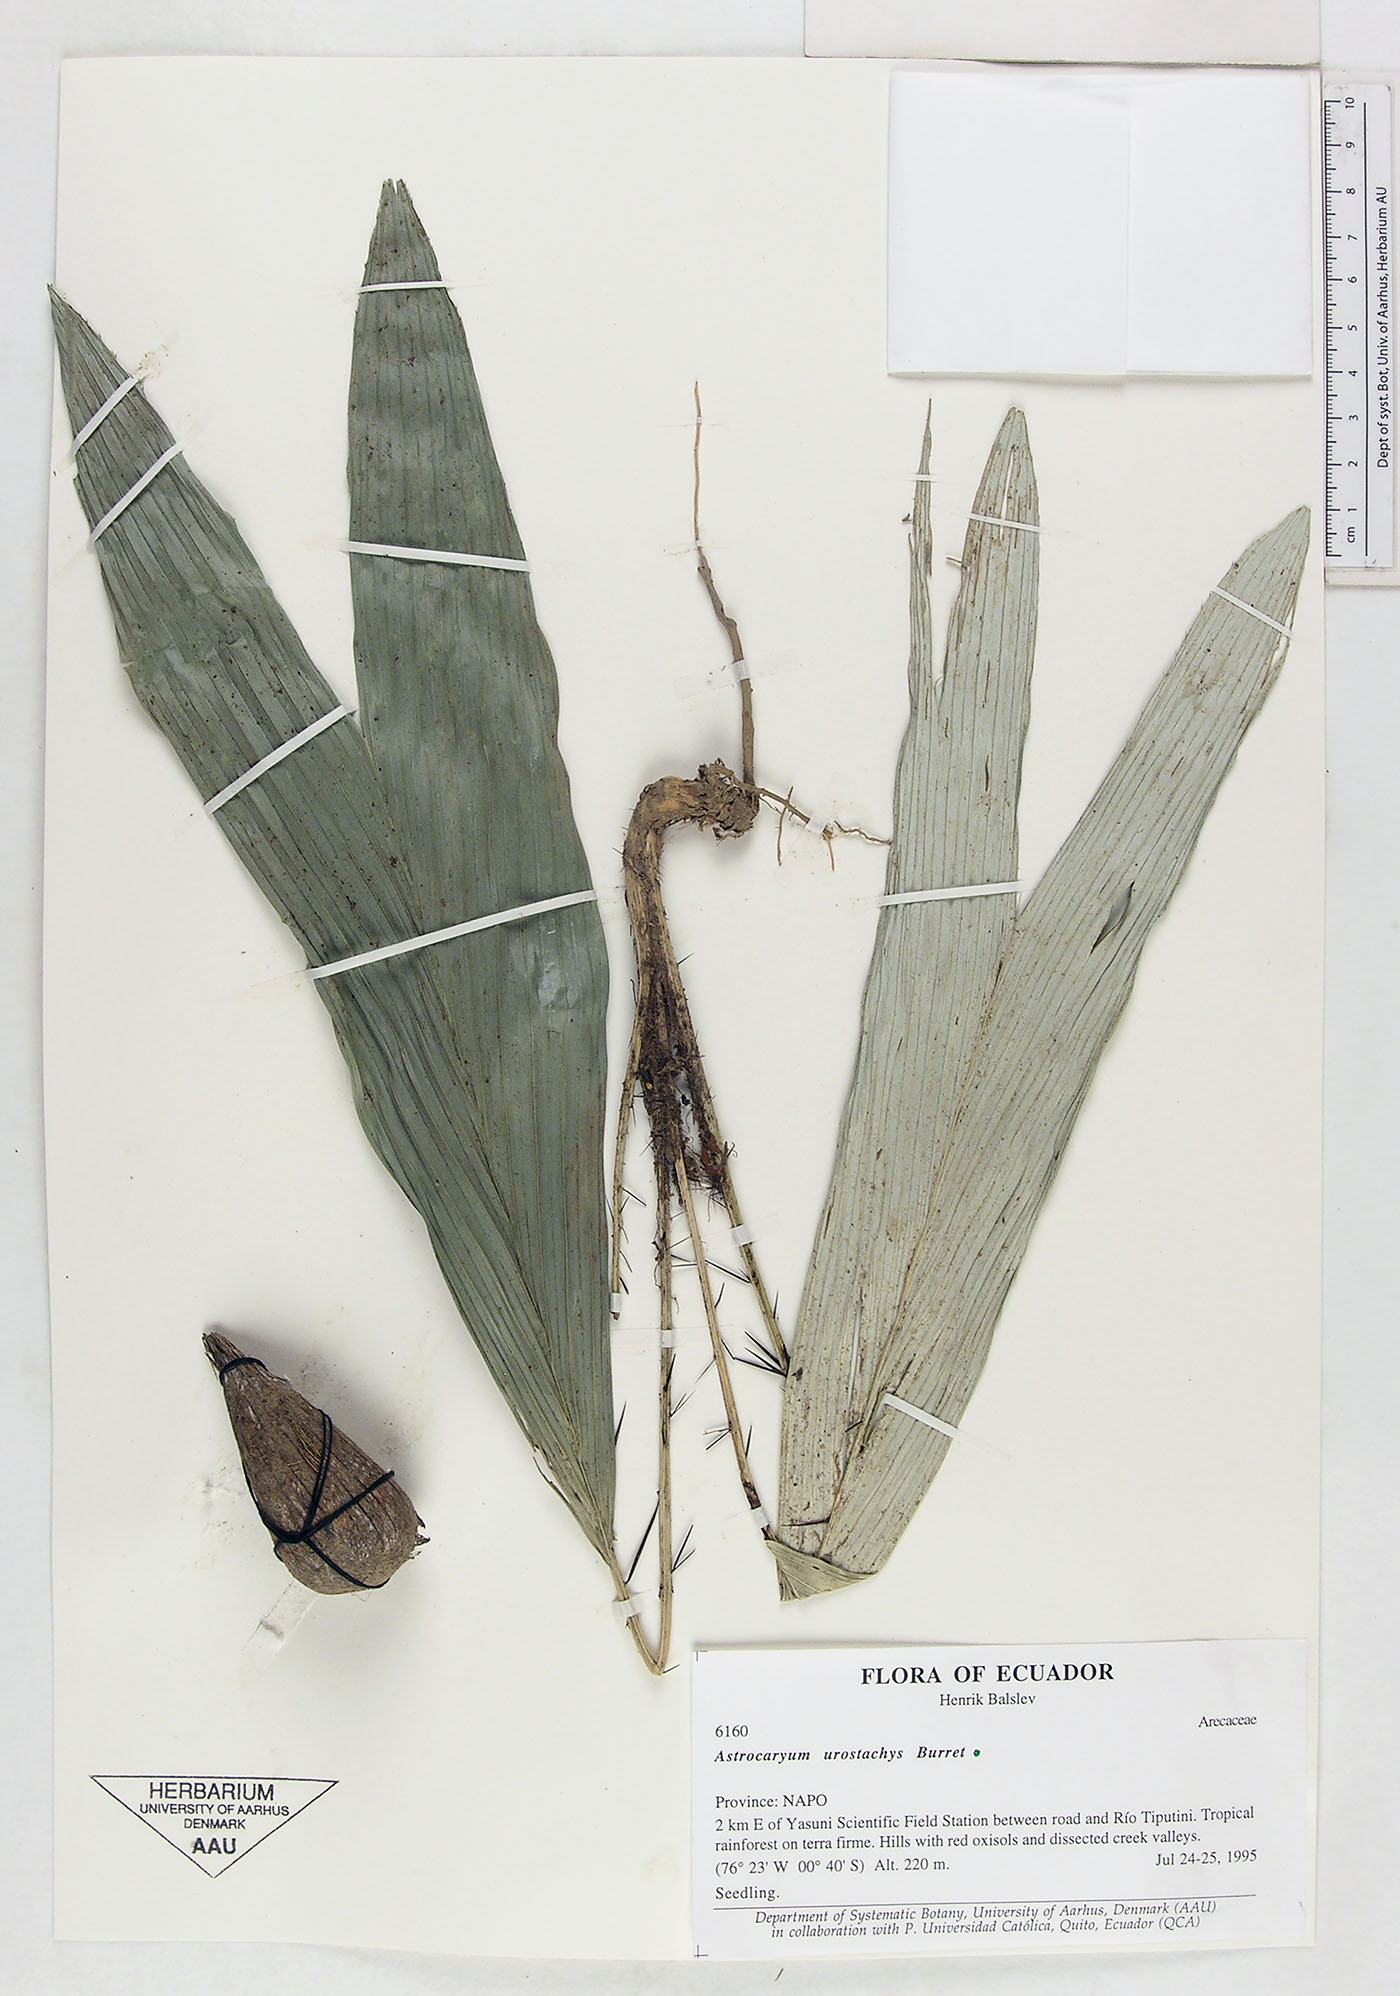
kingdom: Plantae
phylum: Tracheophyta
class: Liliopsida
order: Arecales
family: Arecaceae
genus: Astrocaryum
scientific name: Astrocaryum urostachys
